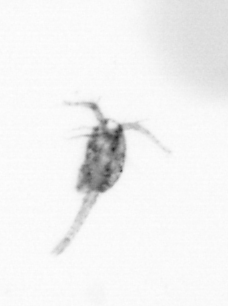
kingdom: Animalia
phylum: Arthropoda
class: Copepoda
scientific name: Copepoda
